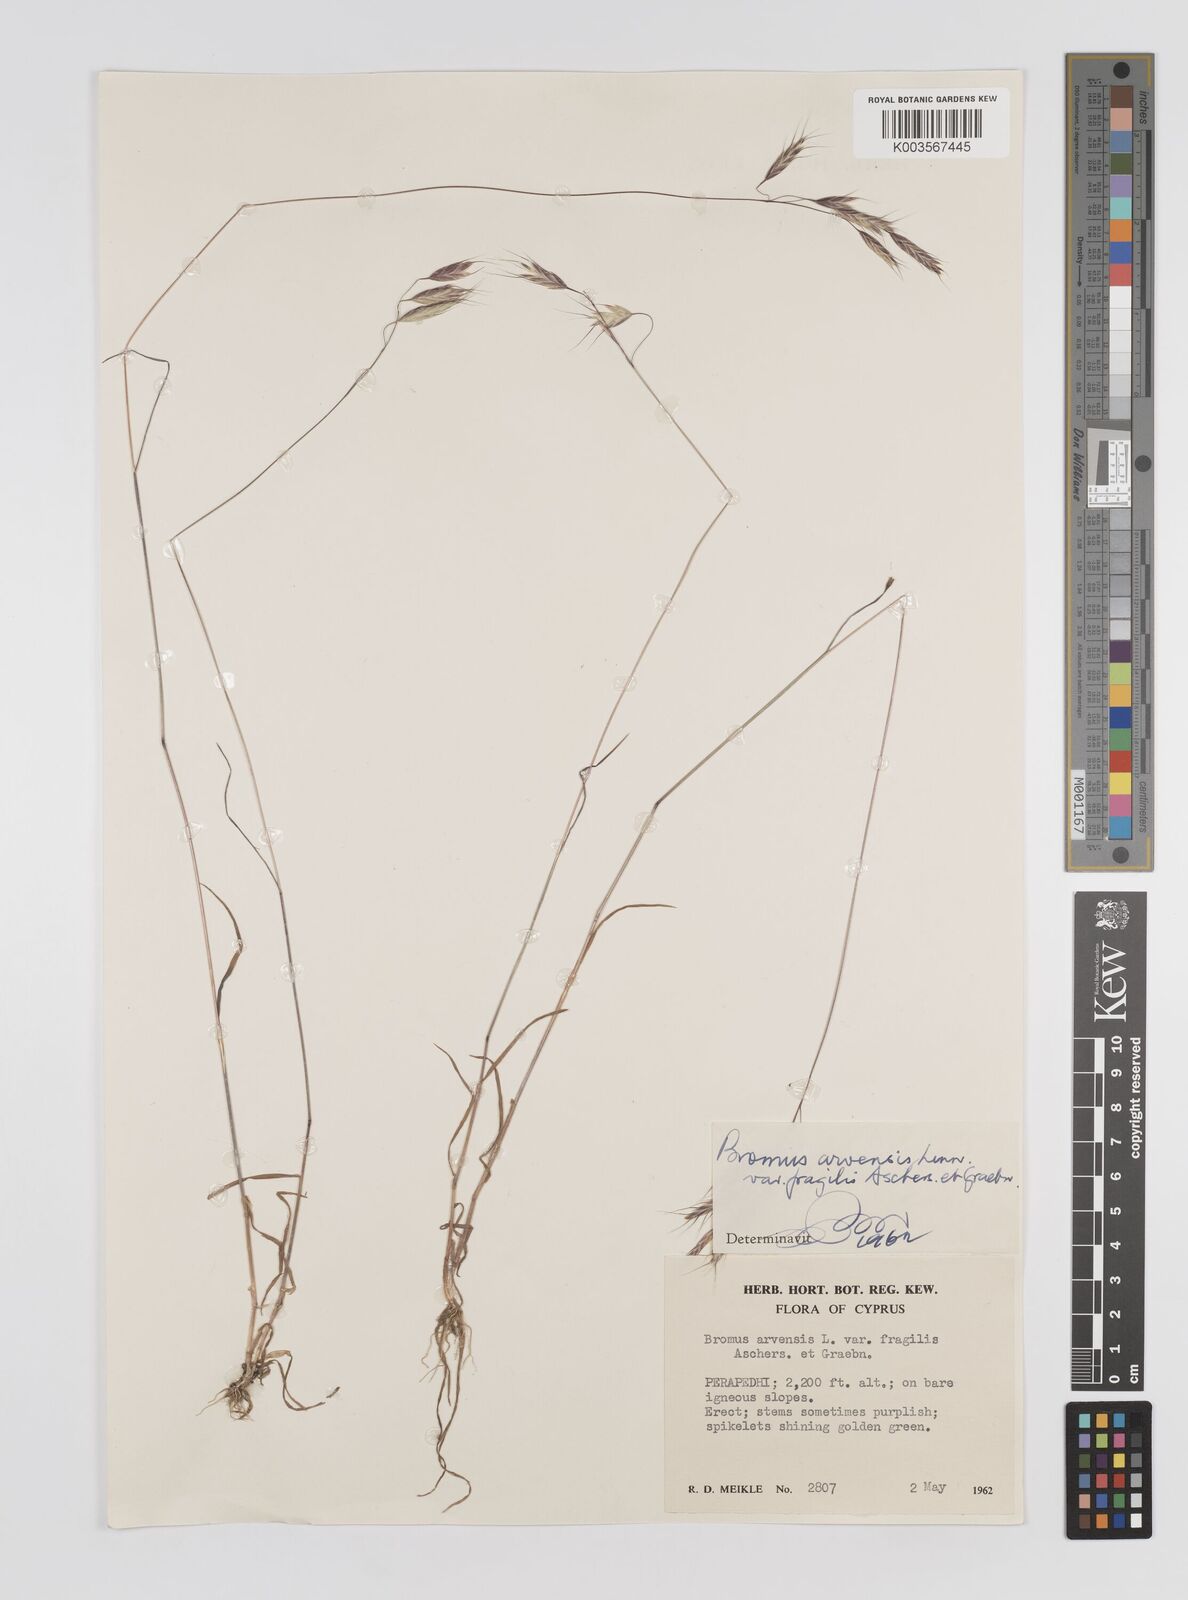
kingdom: Plantae
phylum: Tracheophyta
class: Liliopsida
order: Poales
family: Poaceae
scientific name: Poaceae
